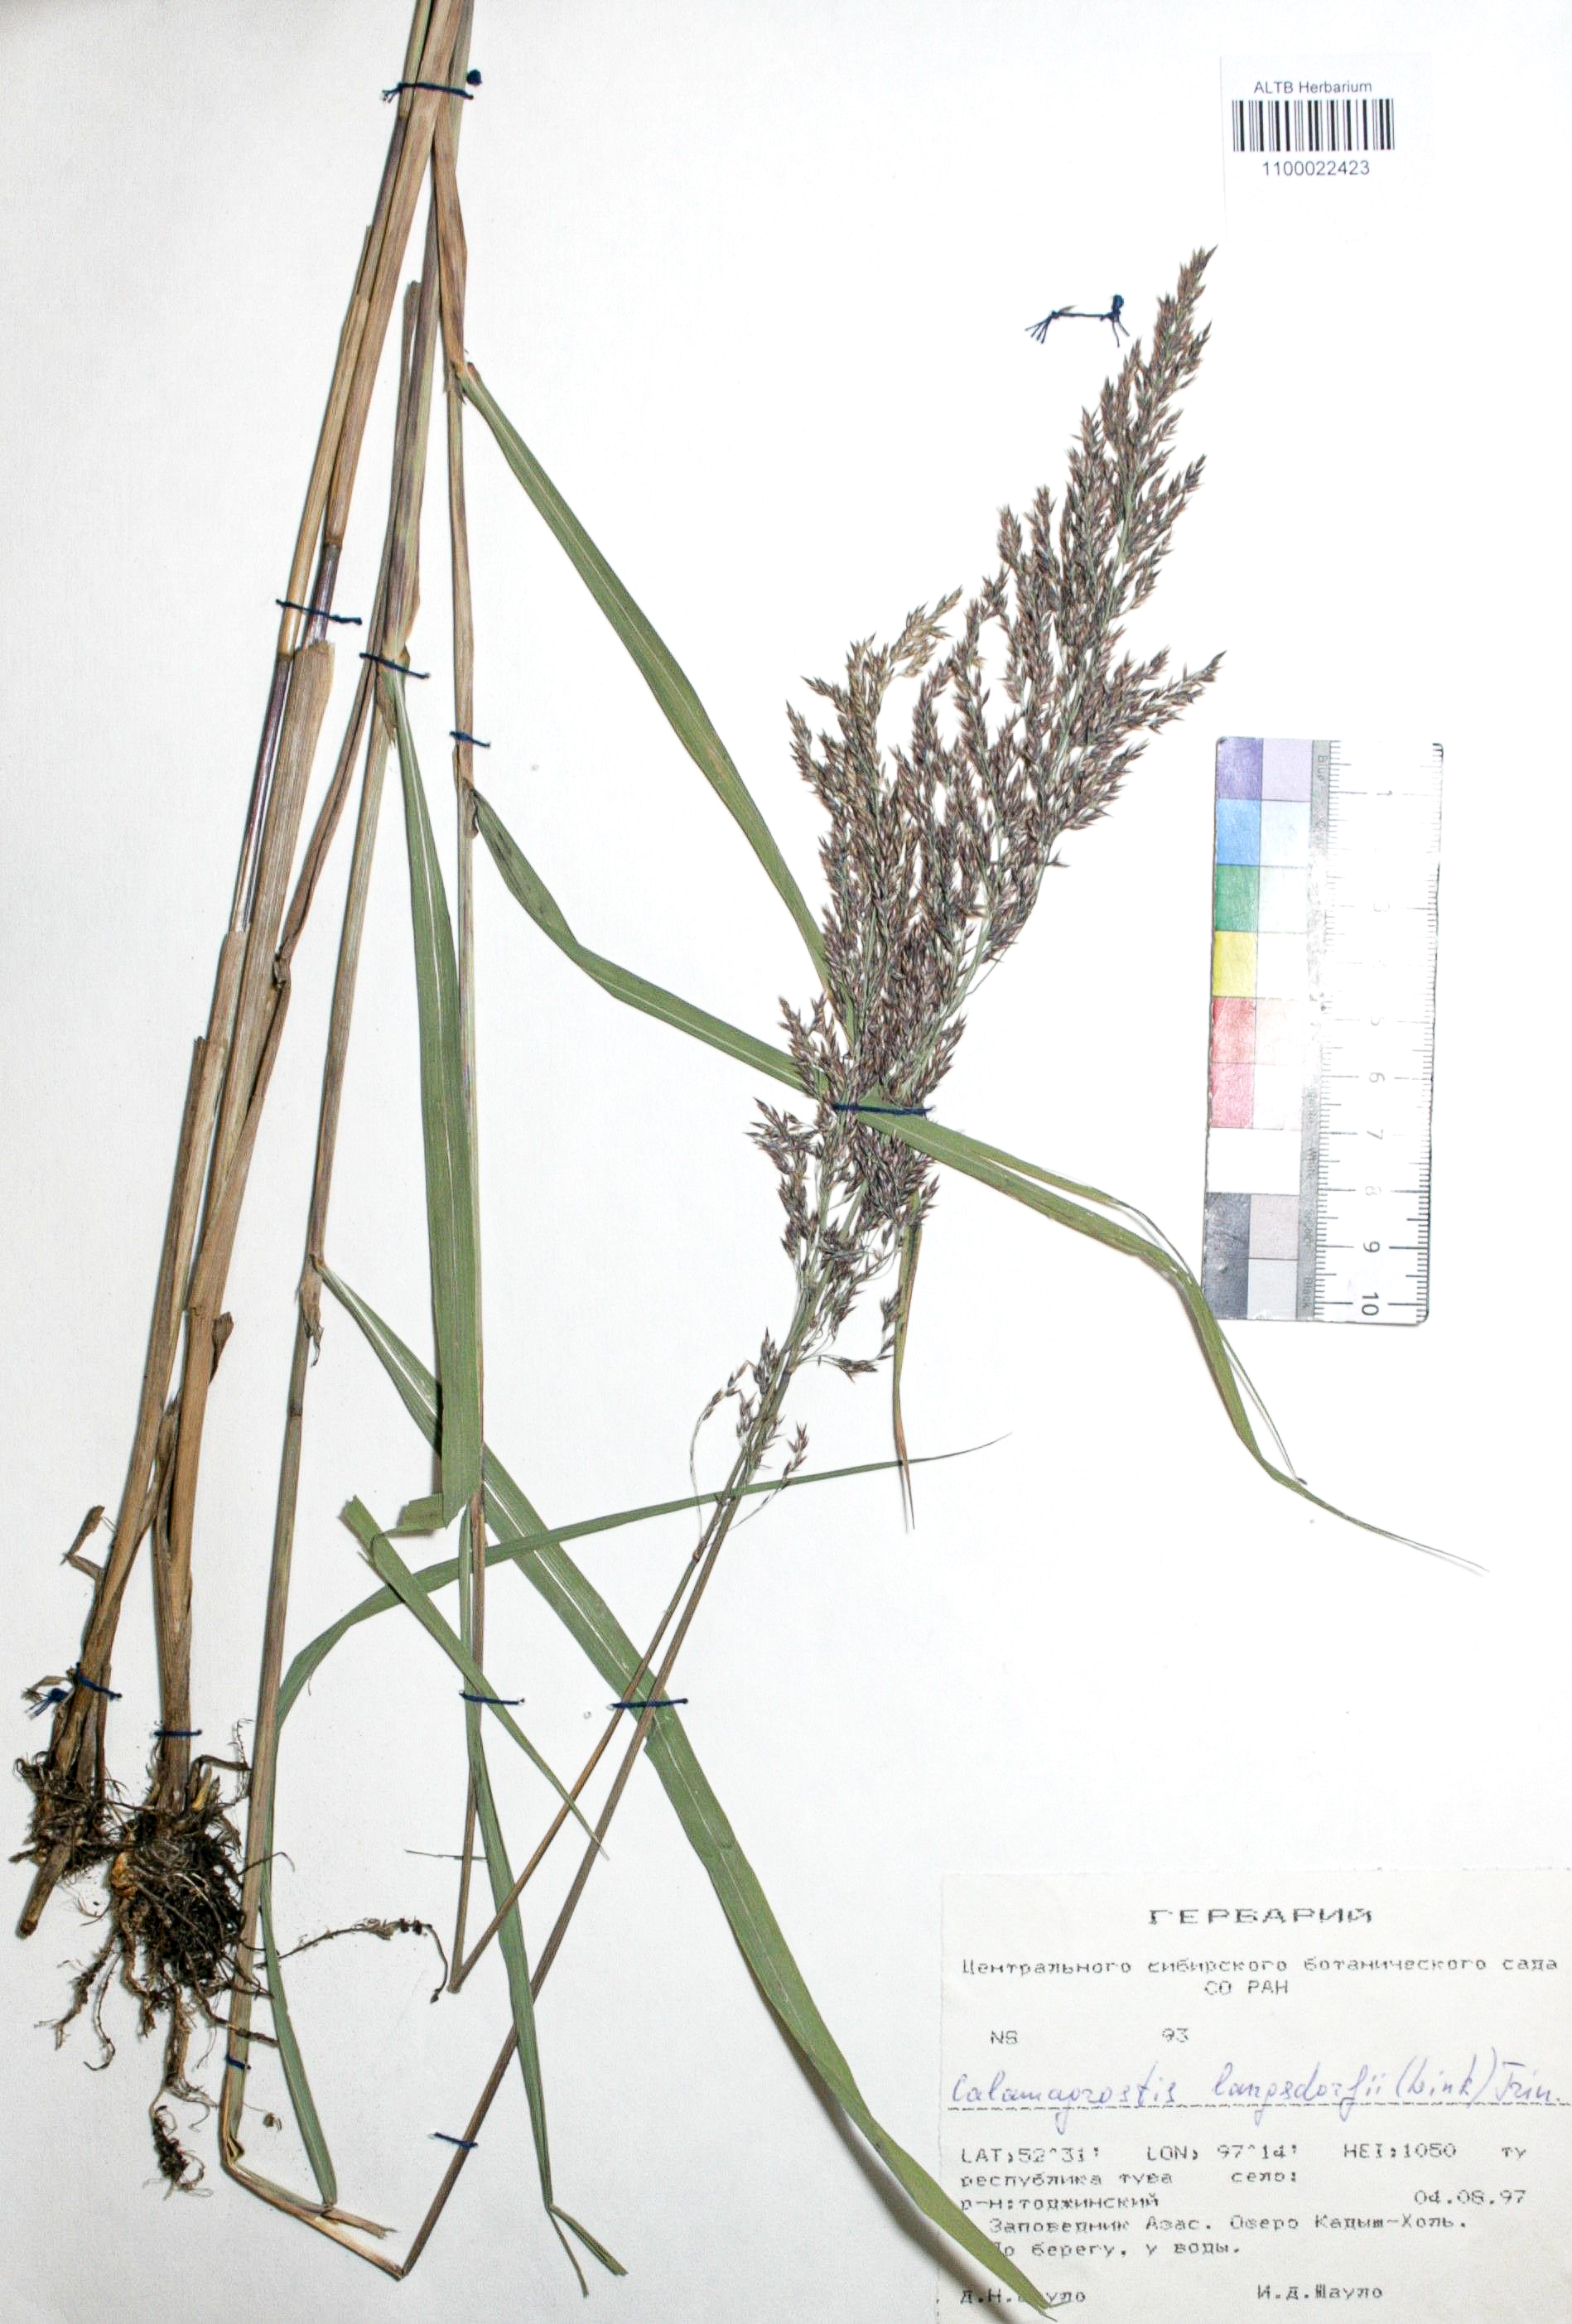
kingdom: Plantae
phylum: Tracheophyta
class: Liliopsida
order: Poales
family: Poaceae
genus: Calamagrostis
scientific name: Calamagrostis purpurea
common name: Scandinavian small-reed
